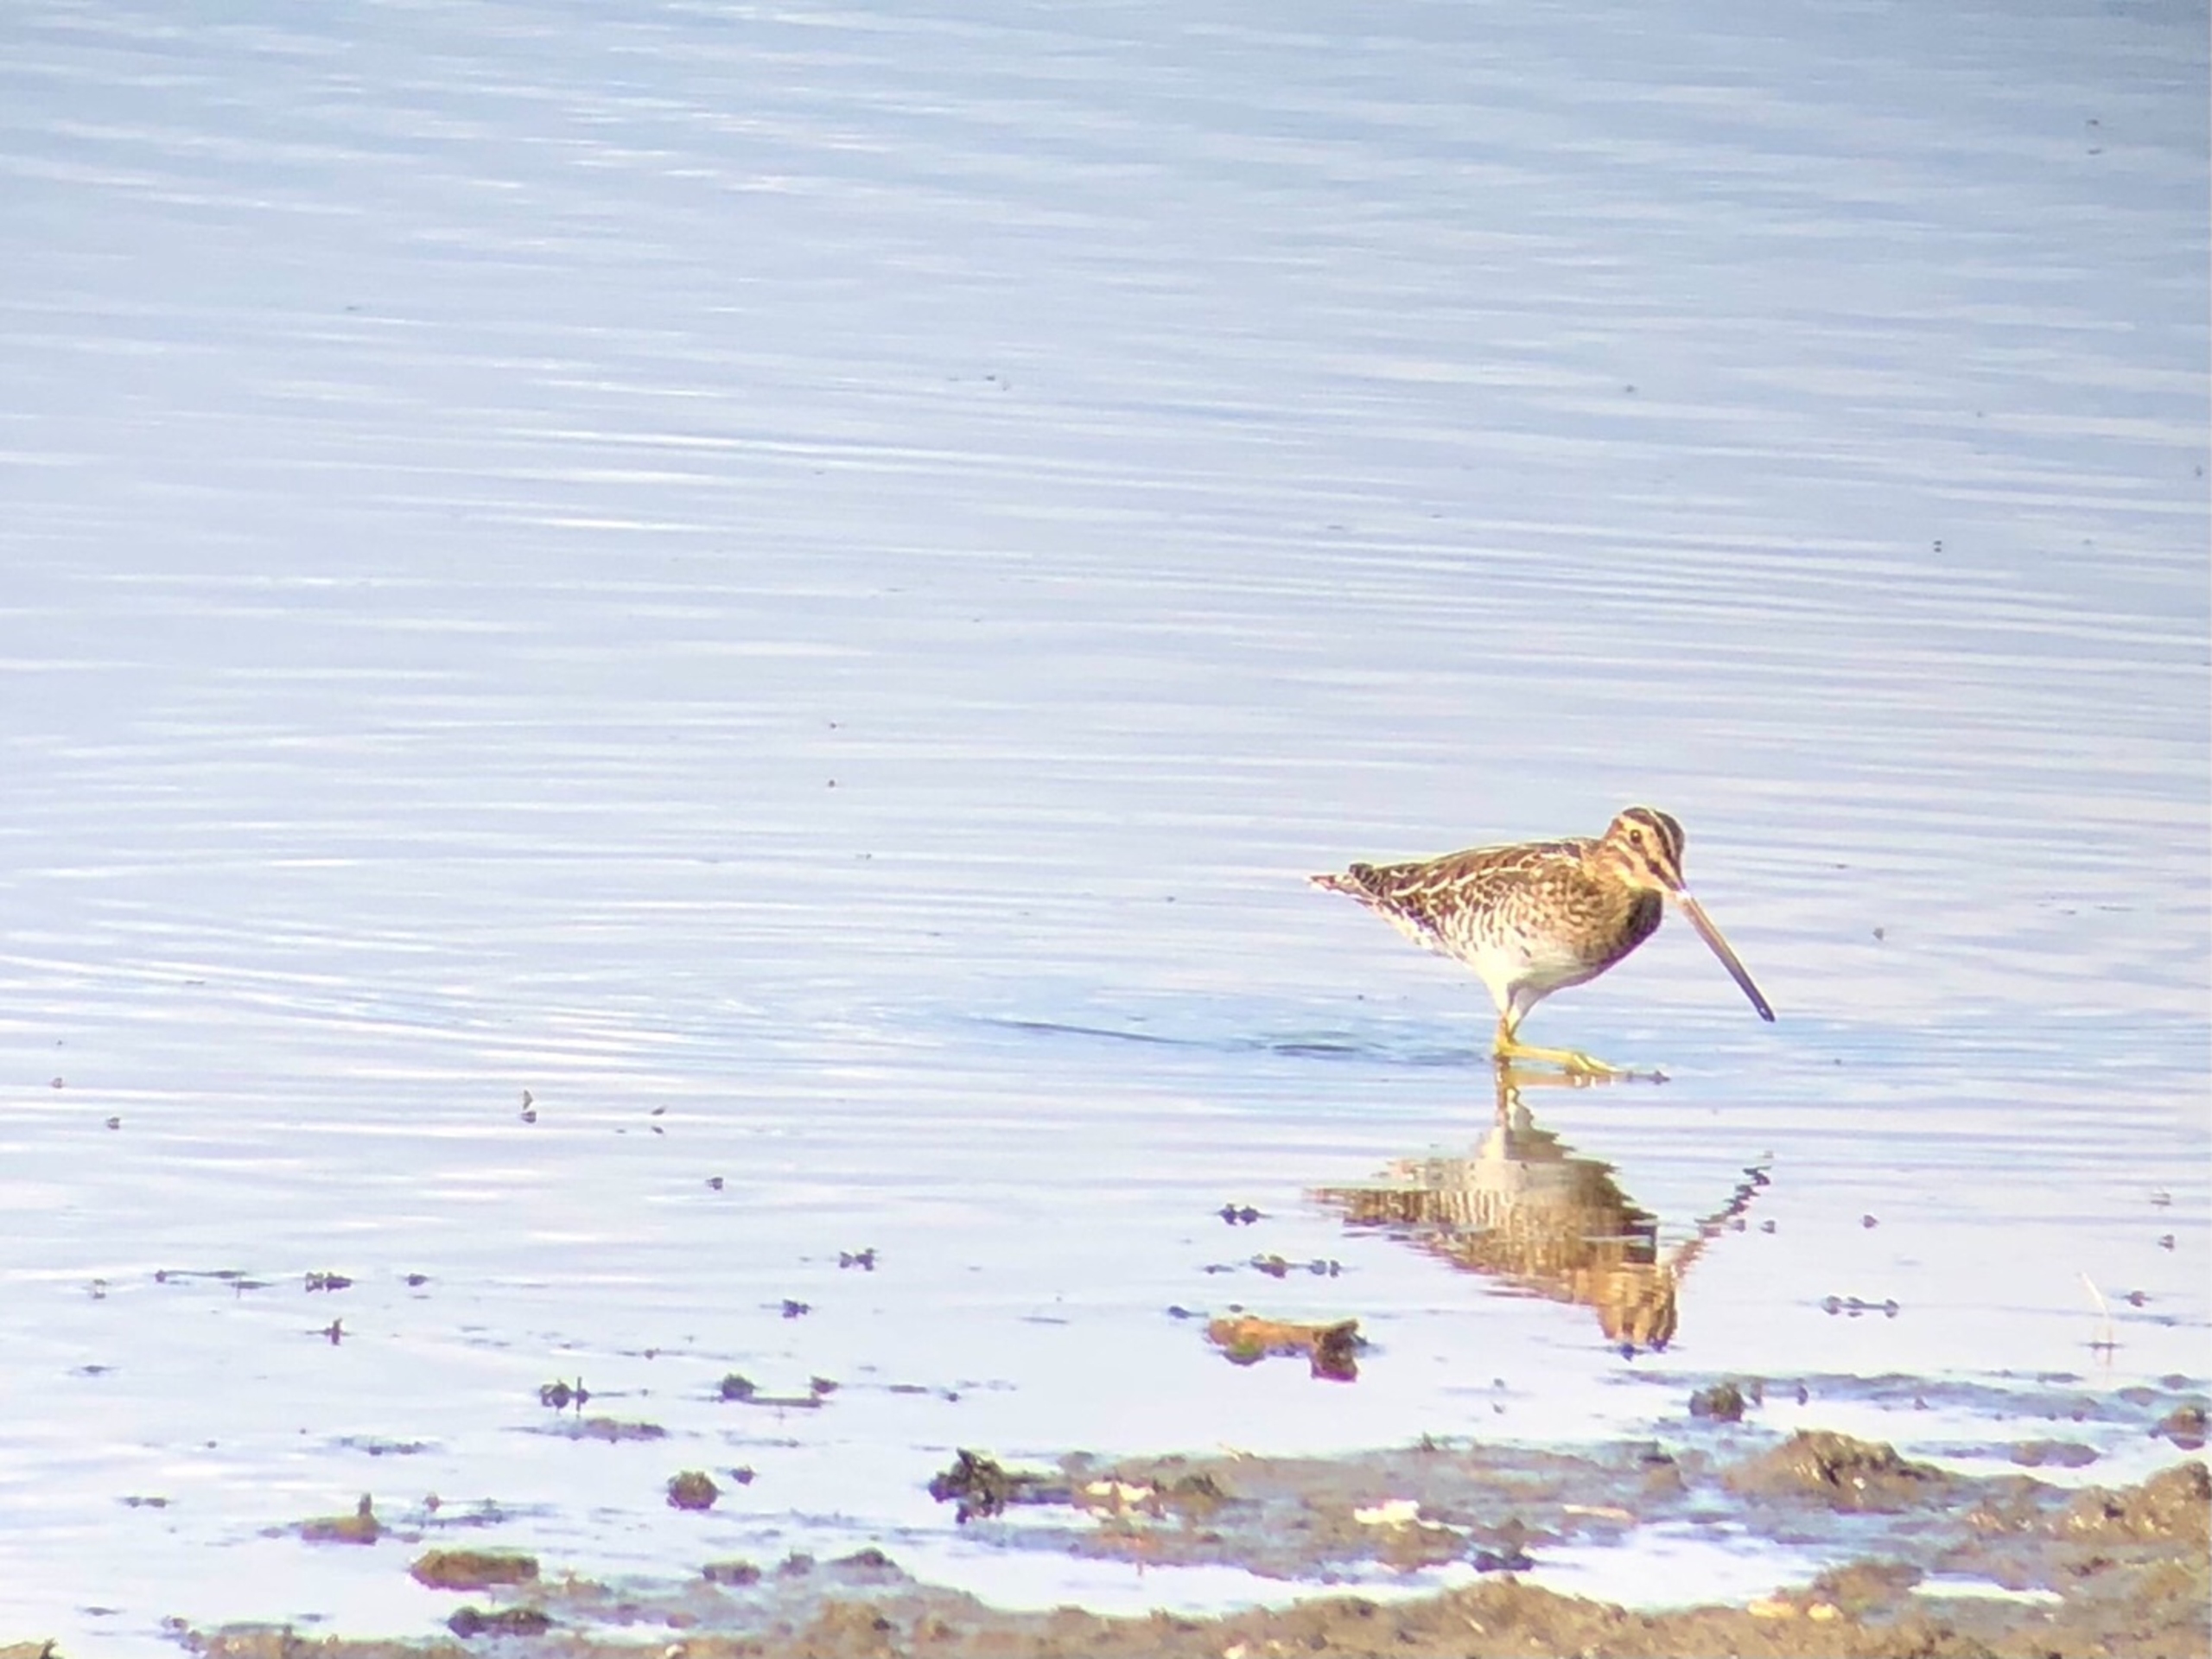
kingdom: Animalia
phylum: Chordata
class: Aves
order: Charadriiformes
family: Scolopacidae
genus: Gallinago
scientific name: Gallinago gallinago
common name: Dobbeltbekkasin
